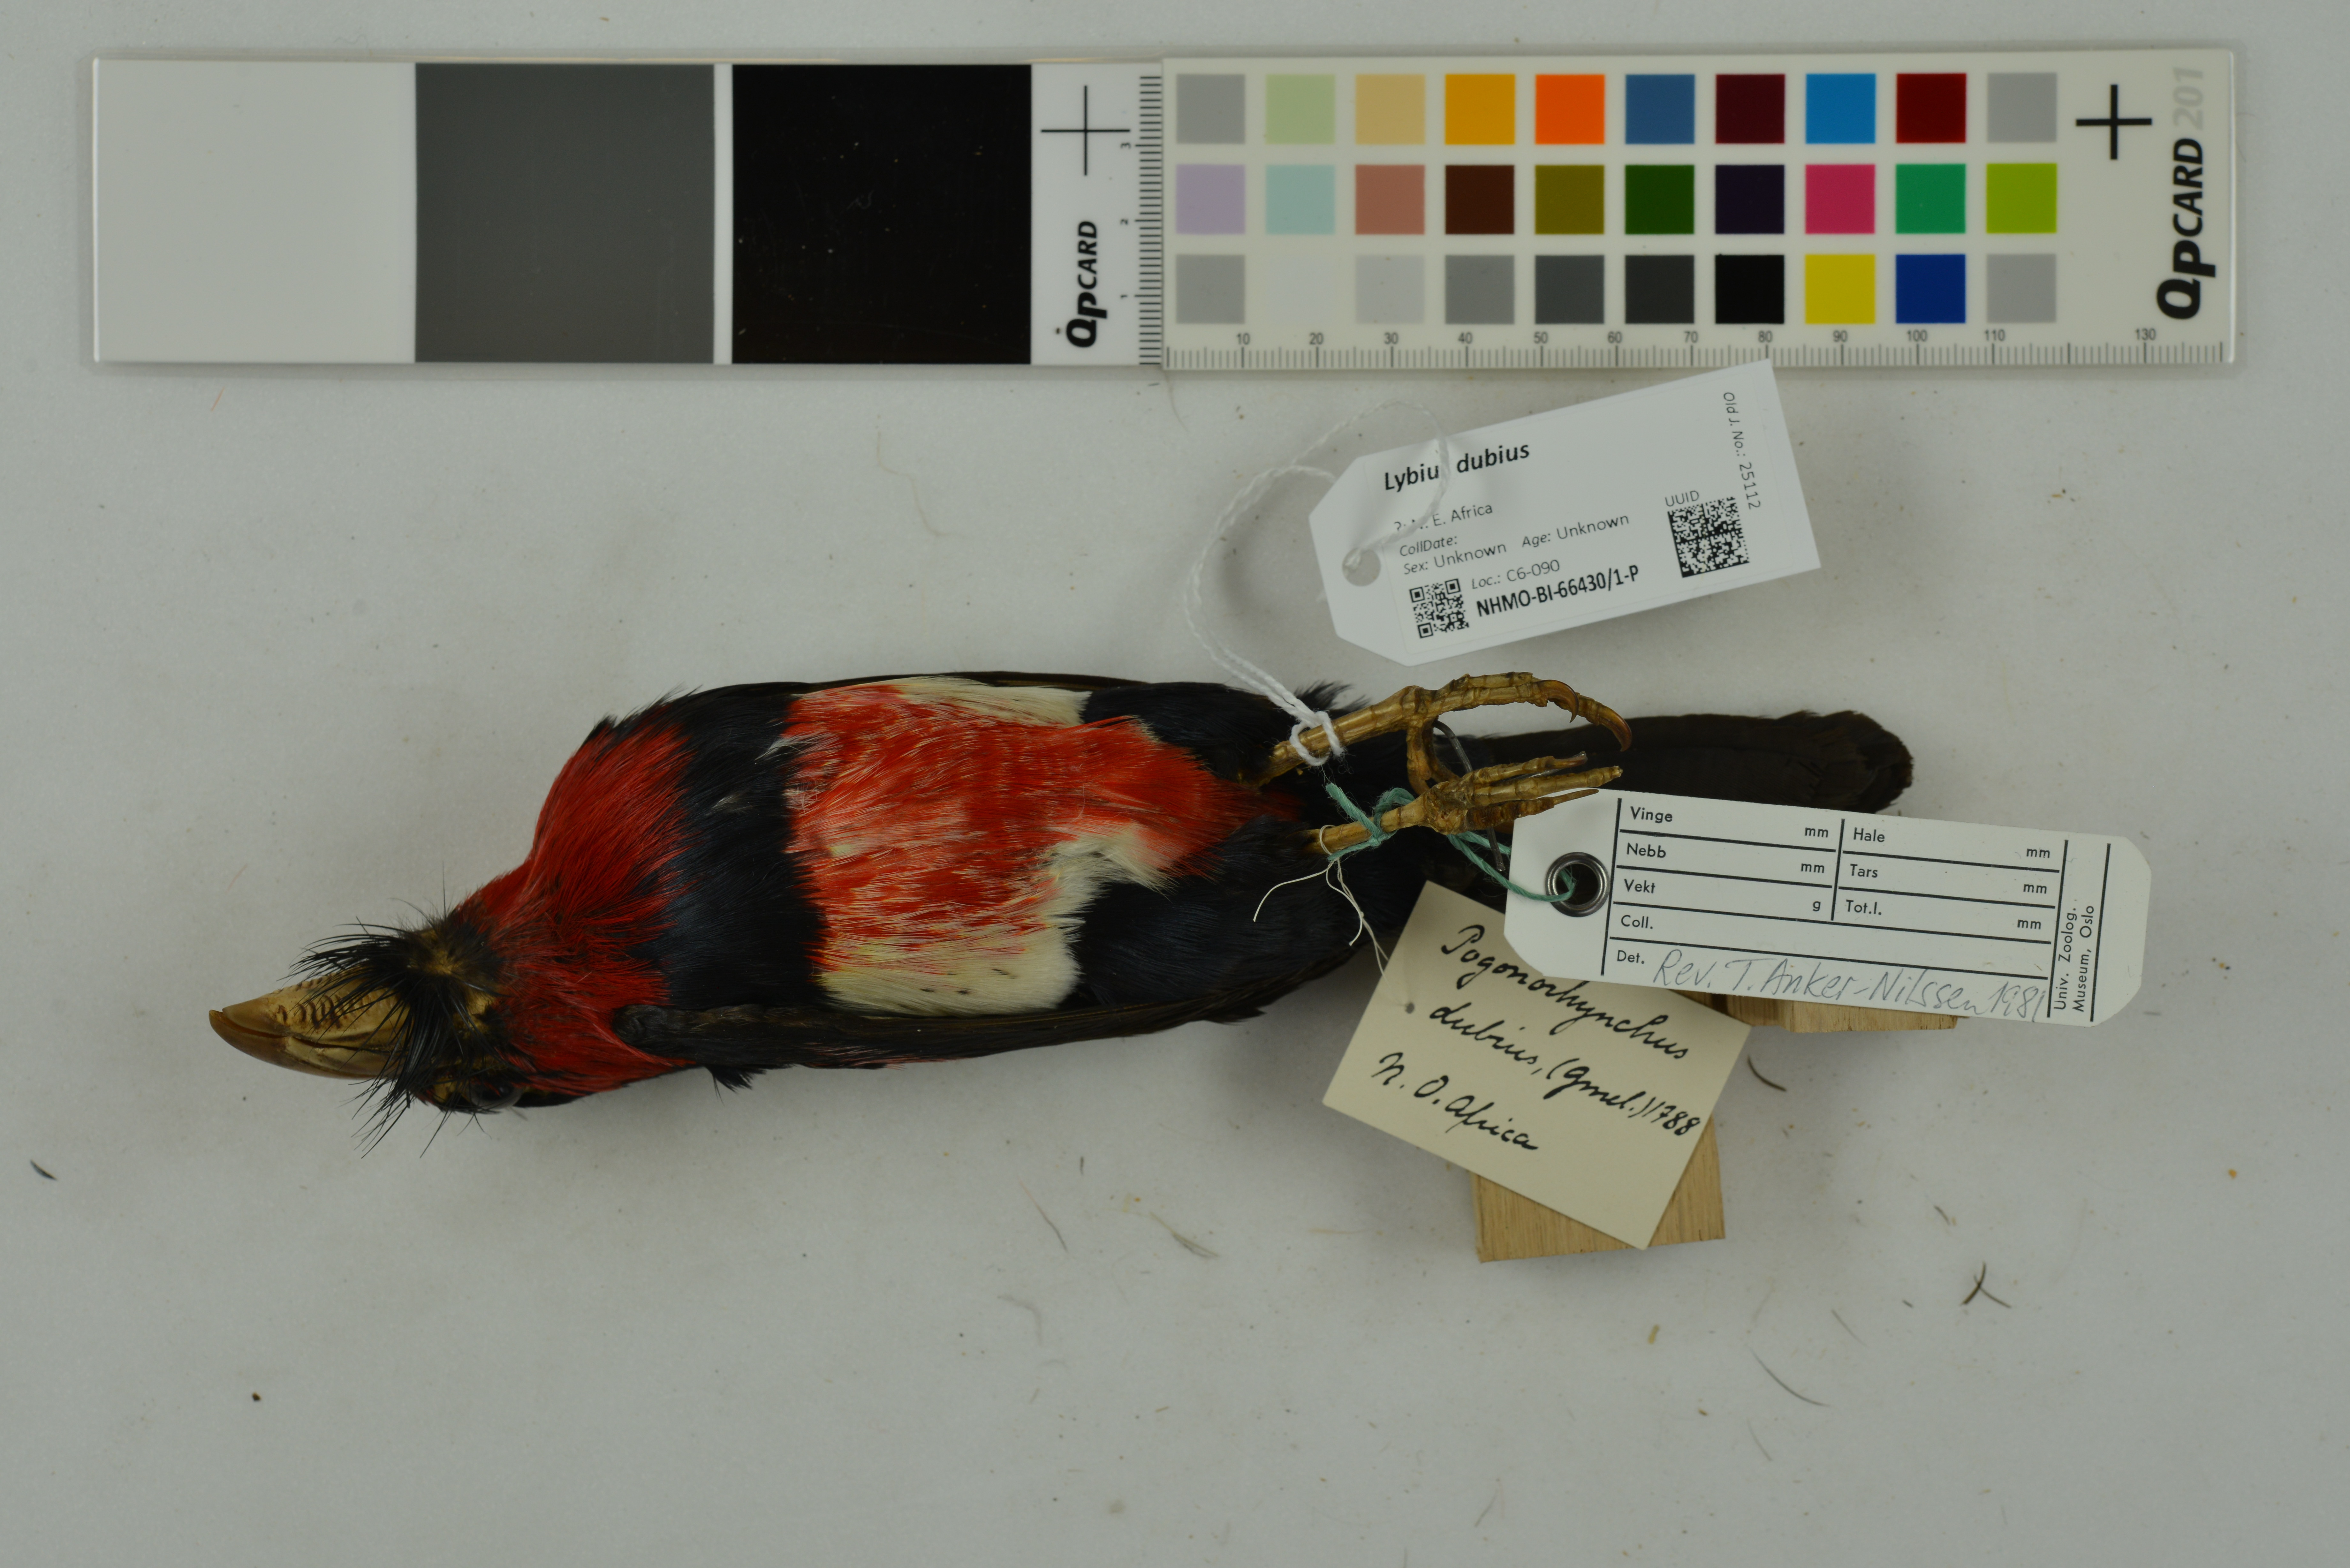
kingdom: Animalia
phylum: Chordata
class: Aves
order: Piciformes
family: Lybiidae
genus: Lybius
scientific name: Lybius dubius
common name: Bearded barbet
